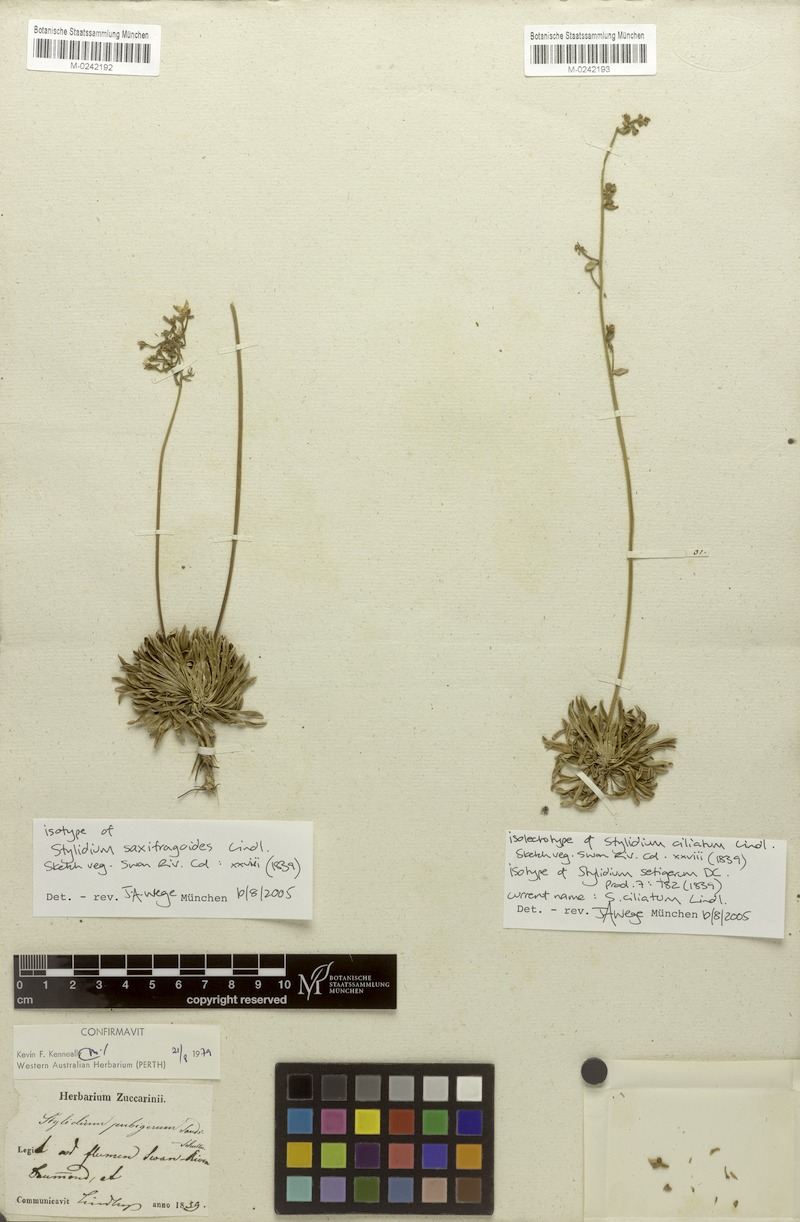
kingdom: Plantae
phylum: Tracheophyta
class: Magnoliopsida
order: Asterales
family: Stylidiaceae
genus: Stylidium
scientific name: Stylidium piliferum
